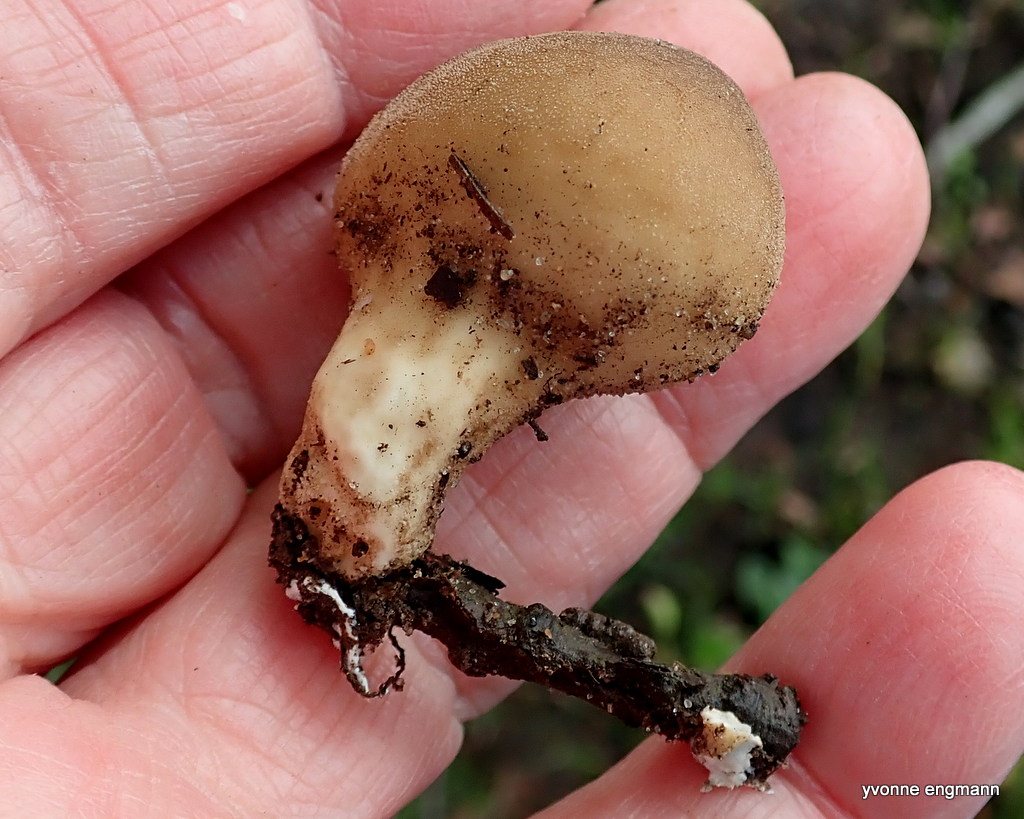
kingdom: Fungi
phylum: Basidiomycota
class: Agaricomycetes
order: Agaricales
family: Lycoperdaceae
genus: Apioperdon
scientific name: Apioperdon pyriforme
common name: pære-støvbold
